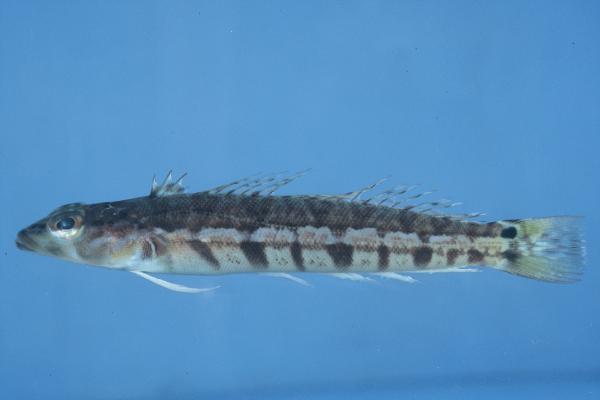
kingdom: Animalia
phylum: Chordata
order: Perciformes
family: Pinguipedidae
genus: Parapercis
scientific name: Parapercis robinsoni
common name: Smallscale sandsmelt
